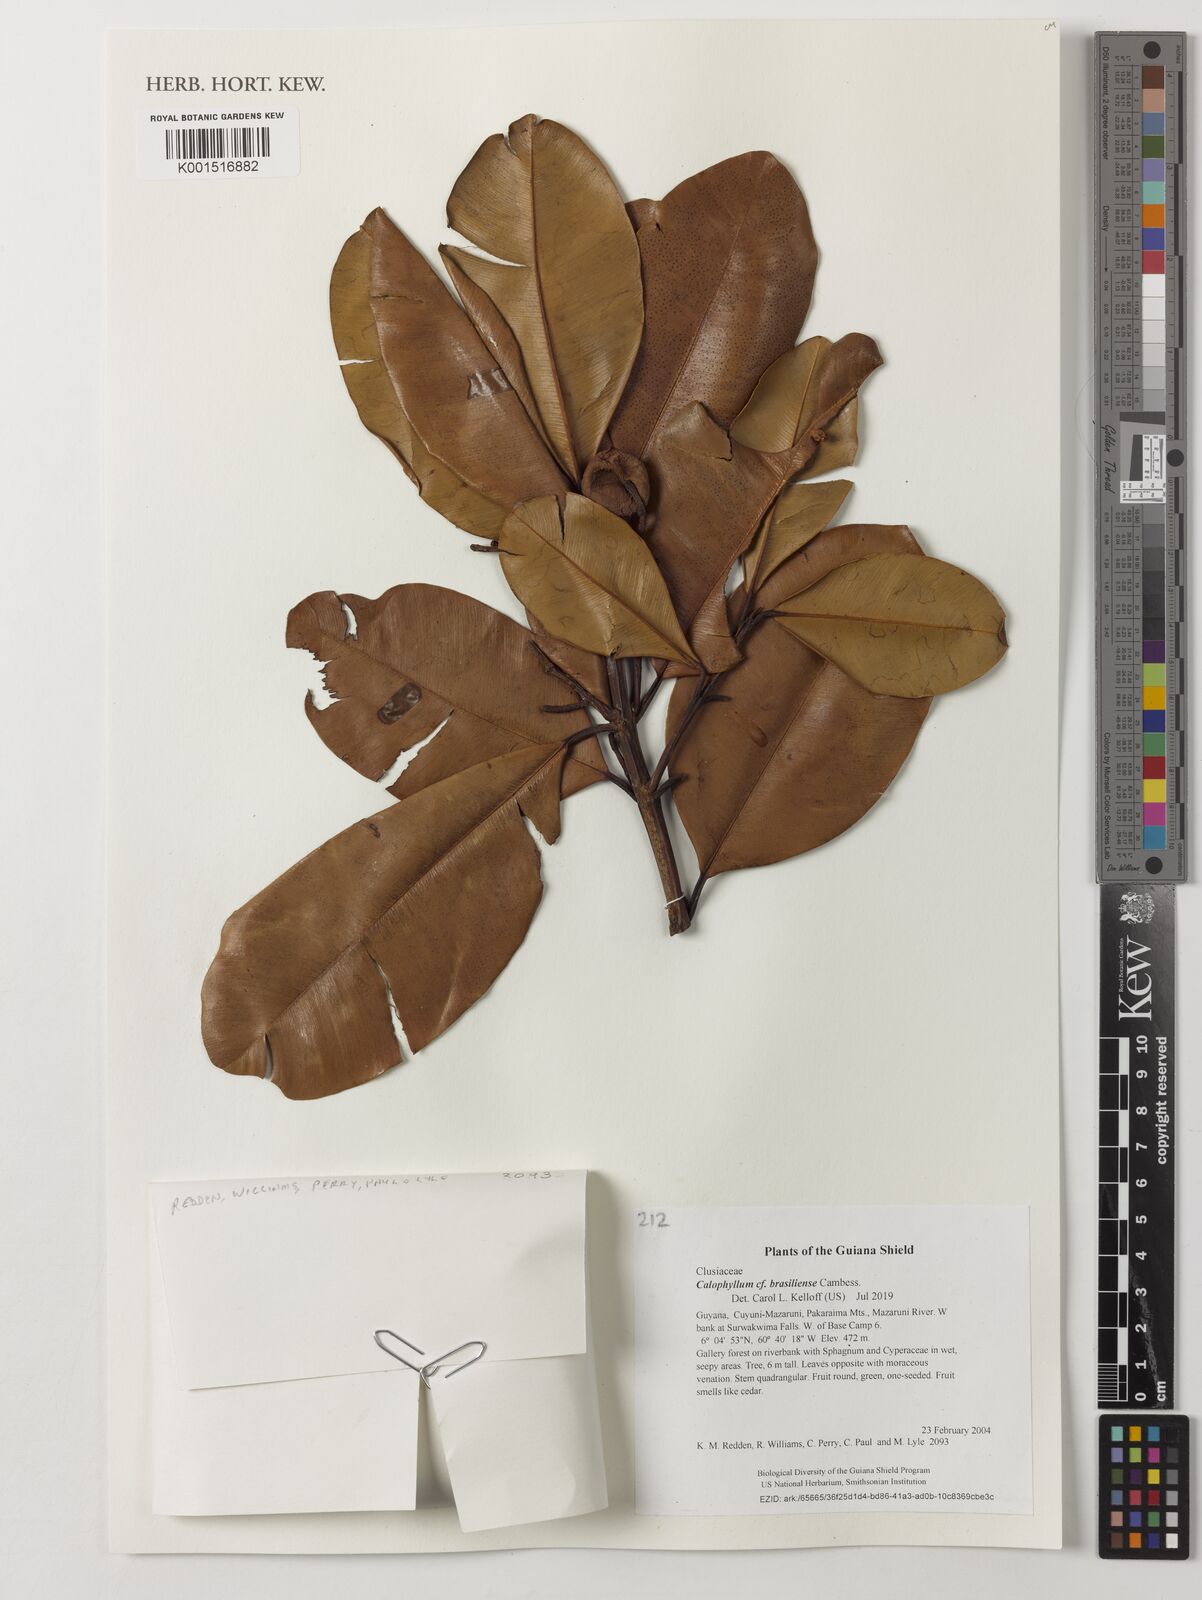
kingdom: Plantae
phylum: Tracheophyta
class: Magnoliopsida
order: Malpighiales
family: Calophyllaceae
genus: Calophyllum
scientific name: Calophyllum brasiliense
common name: Santa maria
